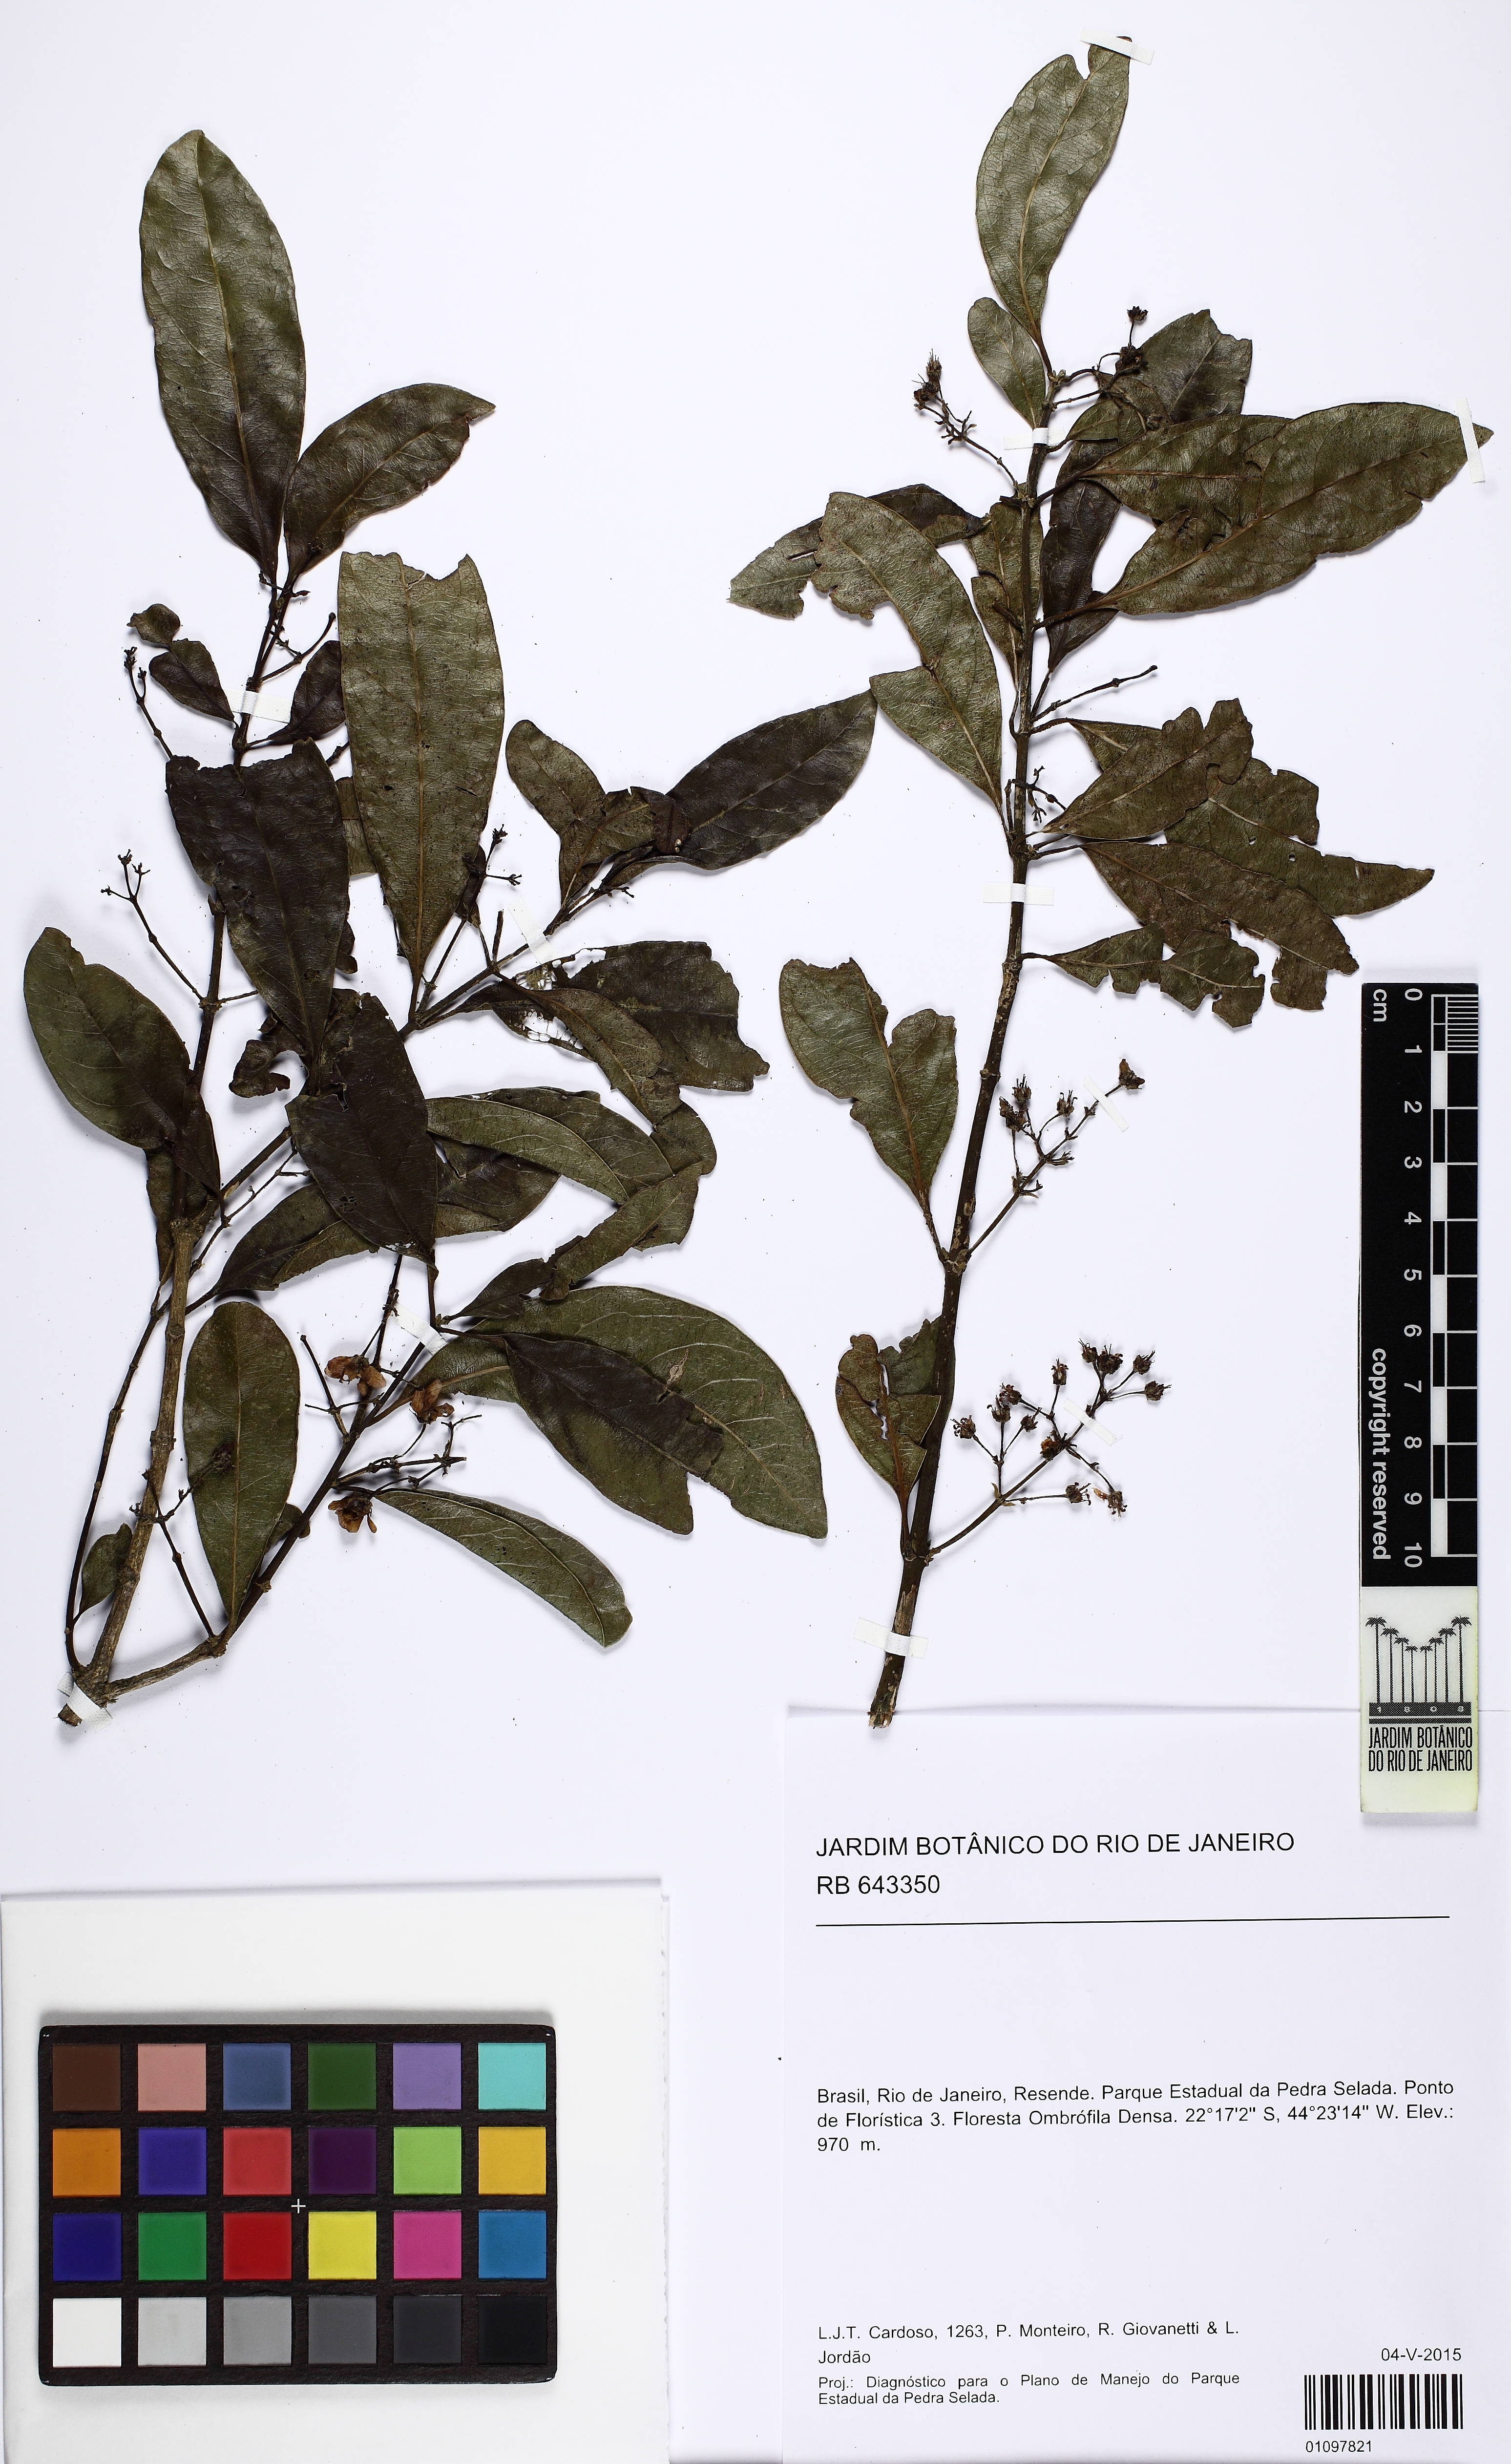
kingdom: Plantae
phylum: Tracheophyta
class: Magnoliopsida
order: Malpighiales
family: Malpighiaceae
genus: Tetrapterys
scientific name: Tetrapterys
